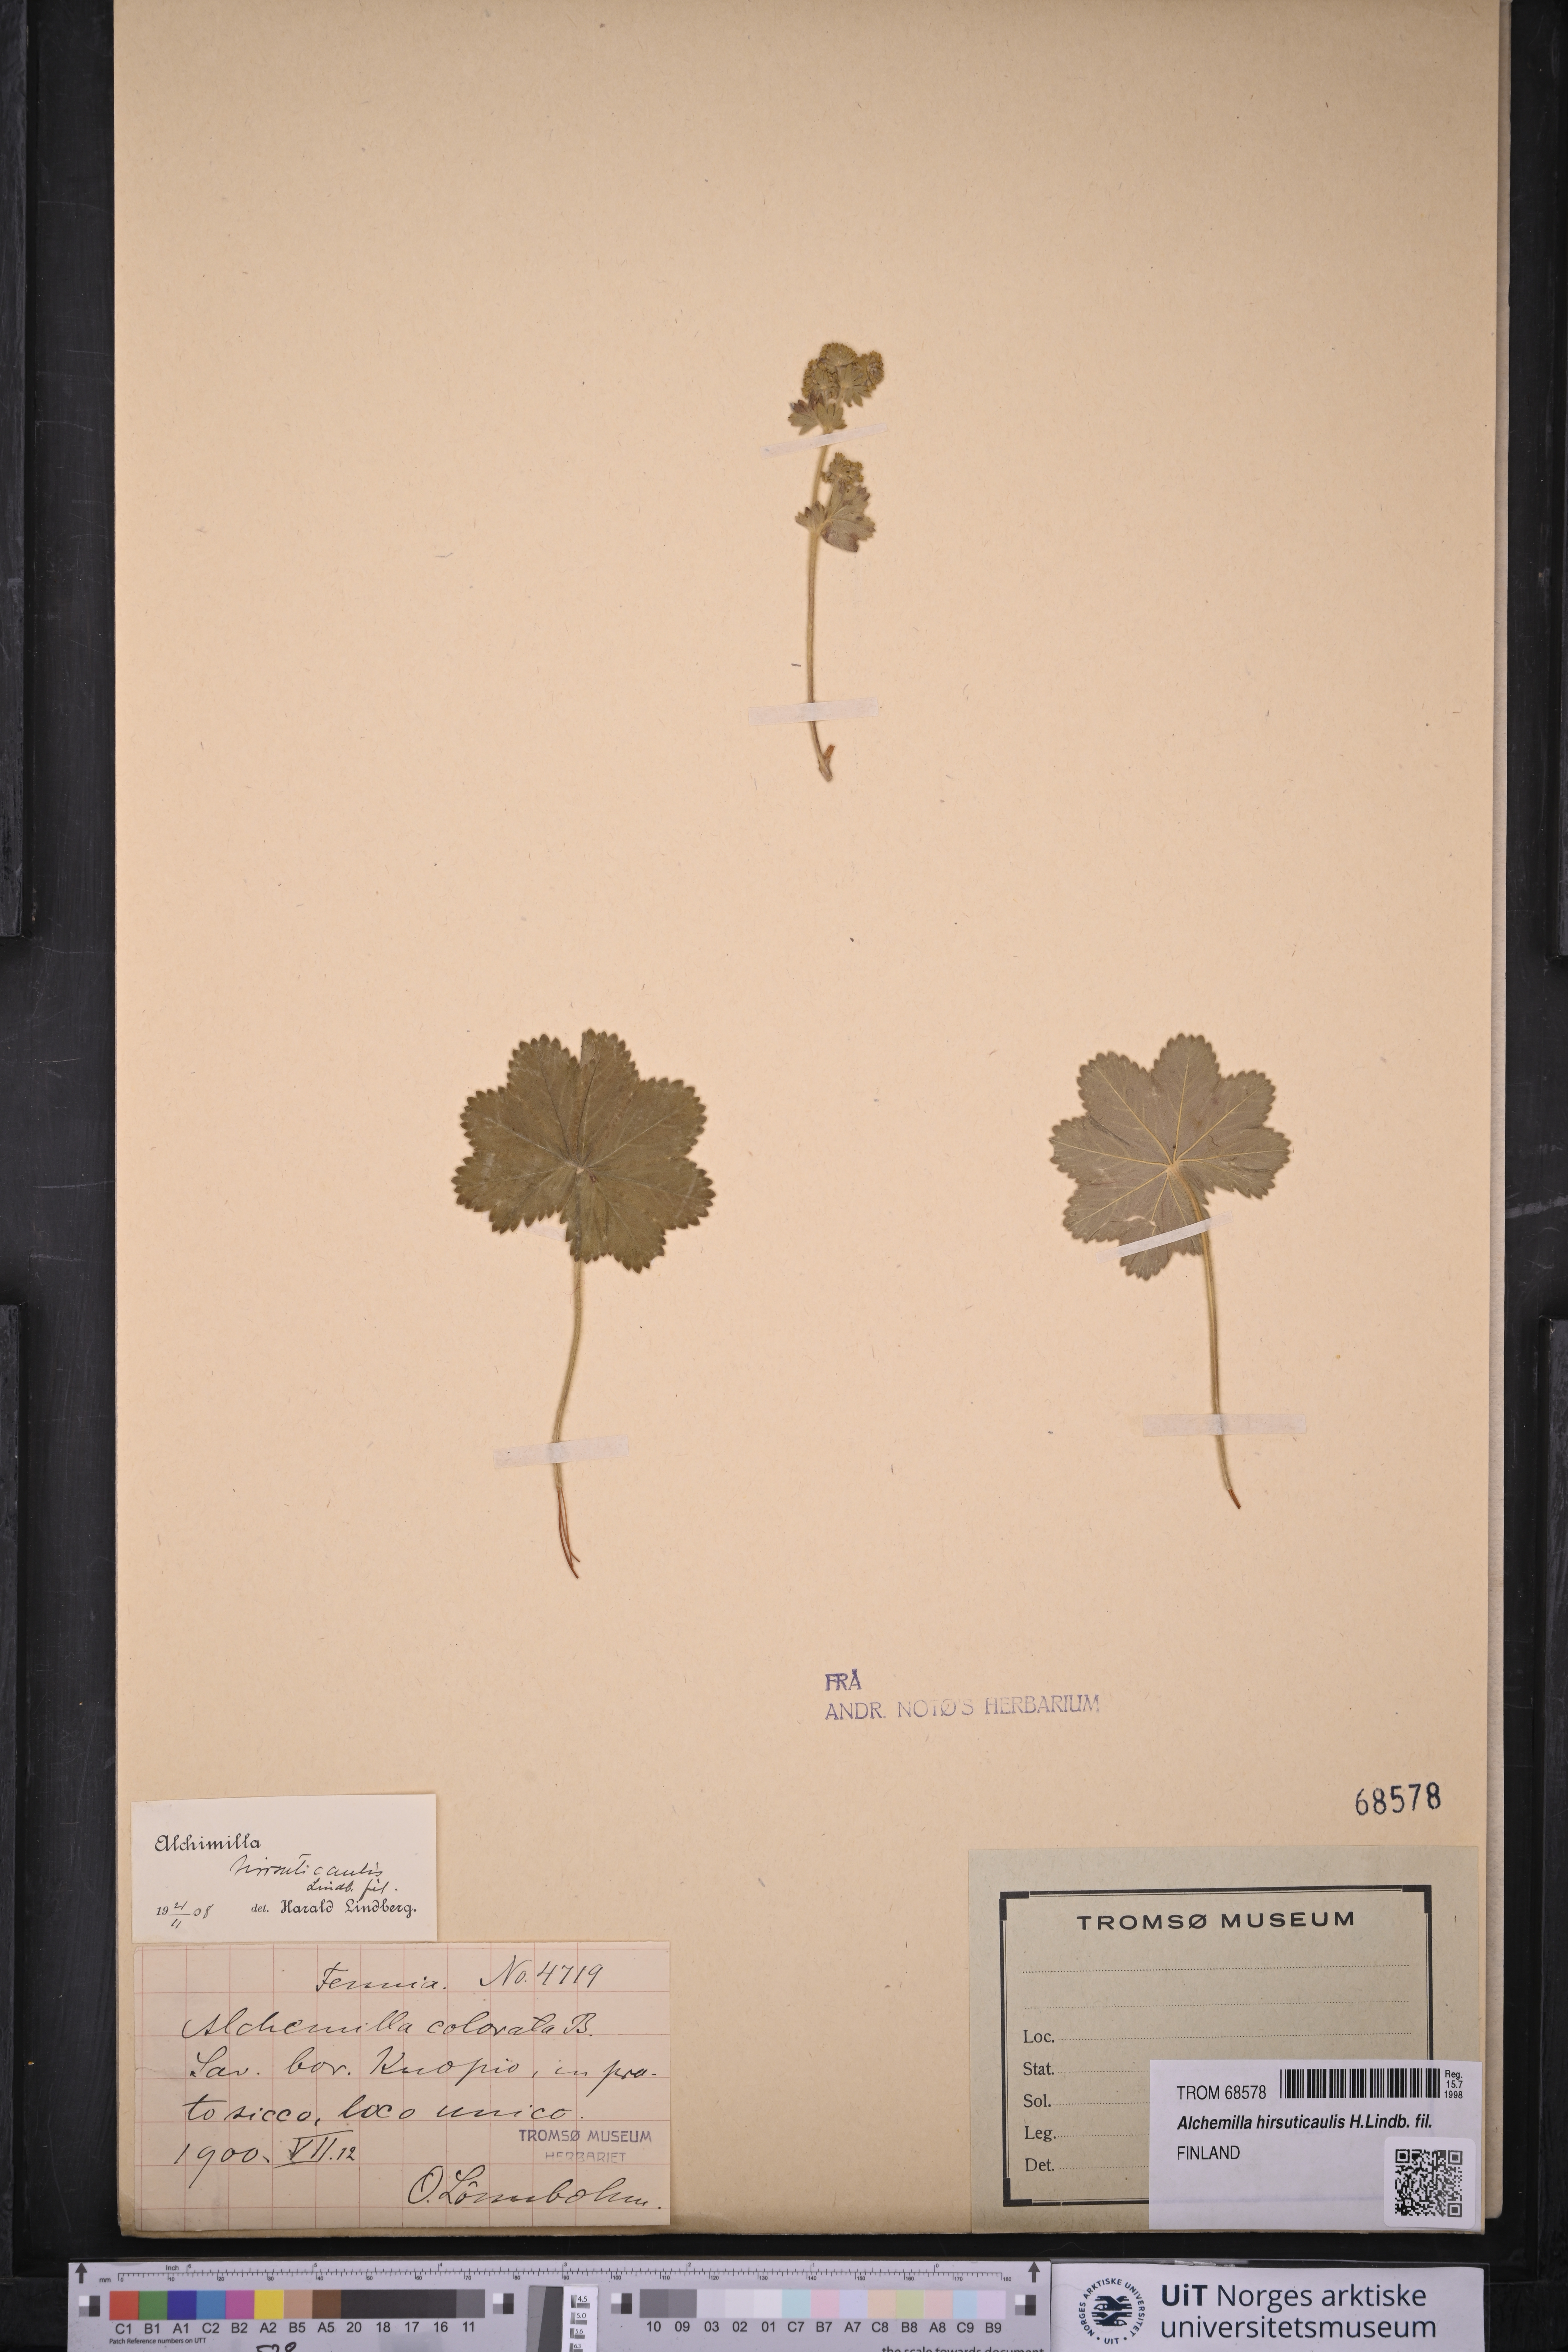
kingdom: Plantae
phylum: Tracheophyta
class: Magnoliopsida
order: Rosales
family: Rosaceae
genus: Alchemilla
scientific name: Alchemilla hirsuticaulis
